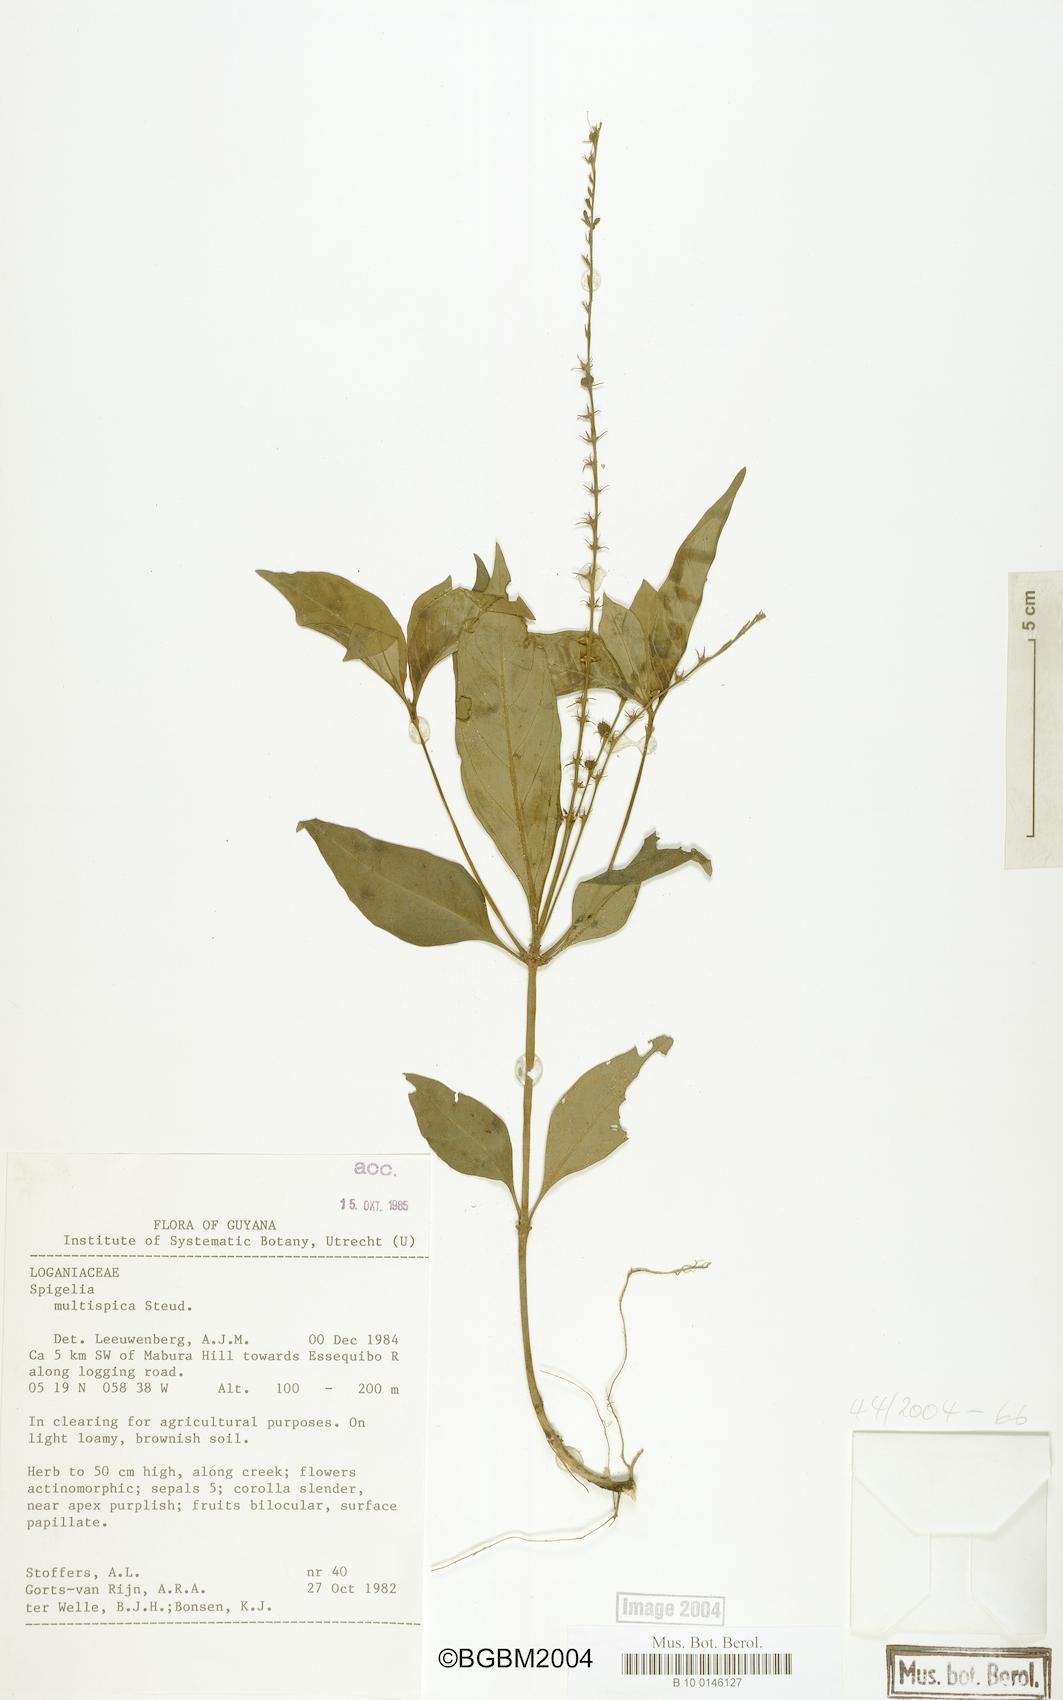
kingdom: Plantae
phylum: Tracheophyta
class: Magnoliopsida
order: Gentianales
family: Loganiaceae
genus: Spigelia
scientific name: Spigelia hamellioides
